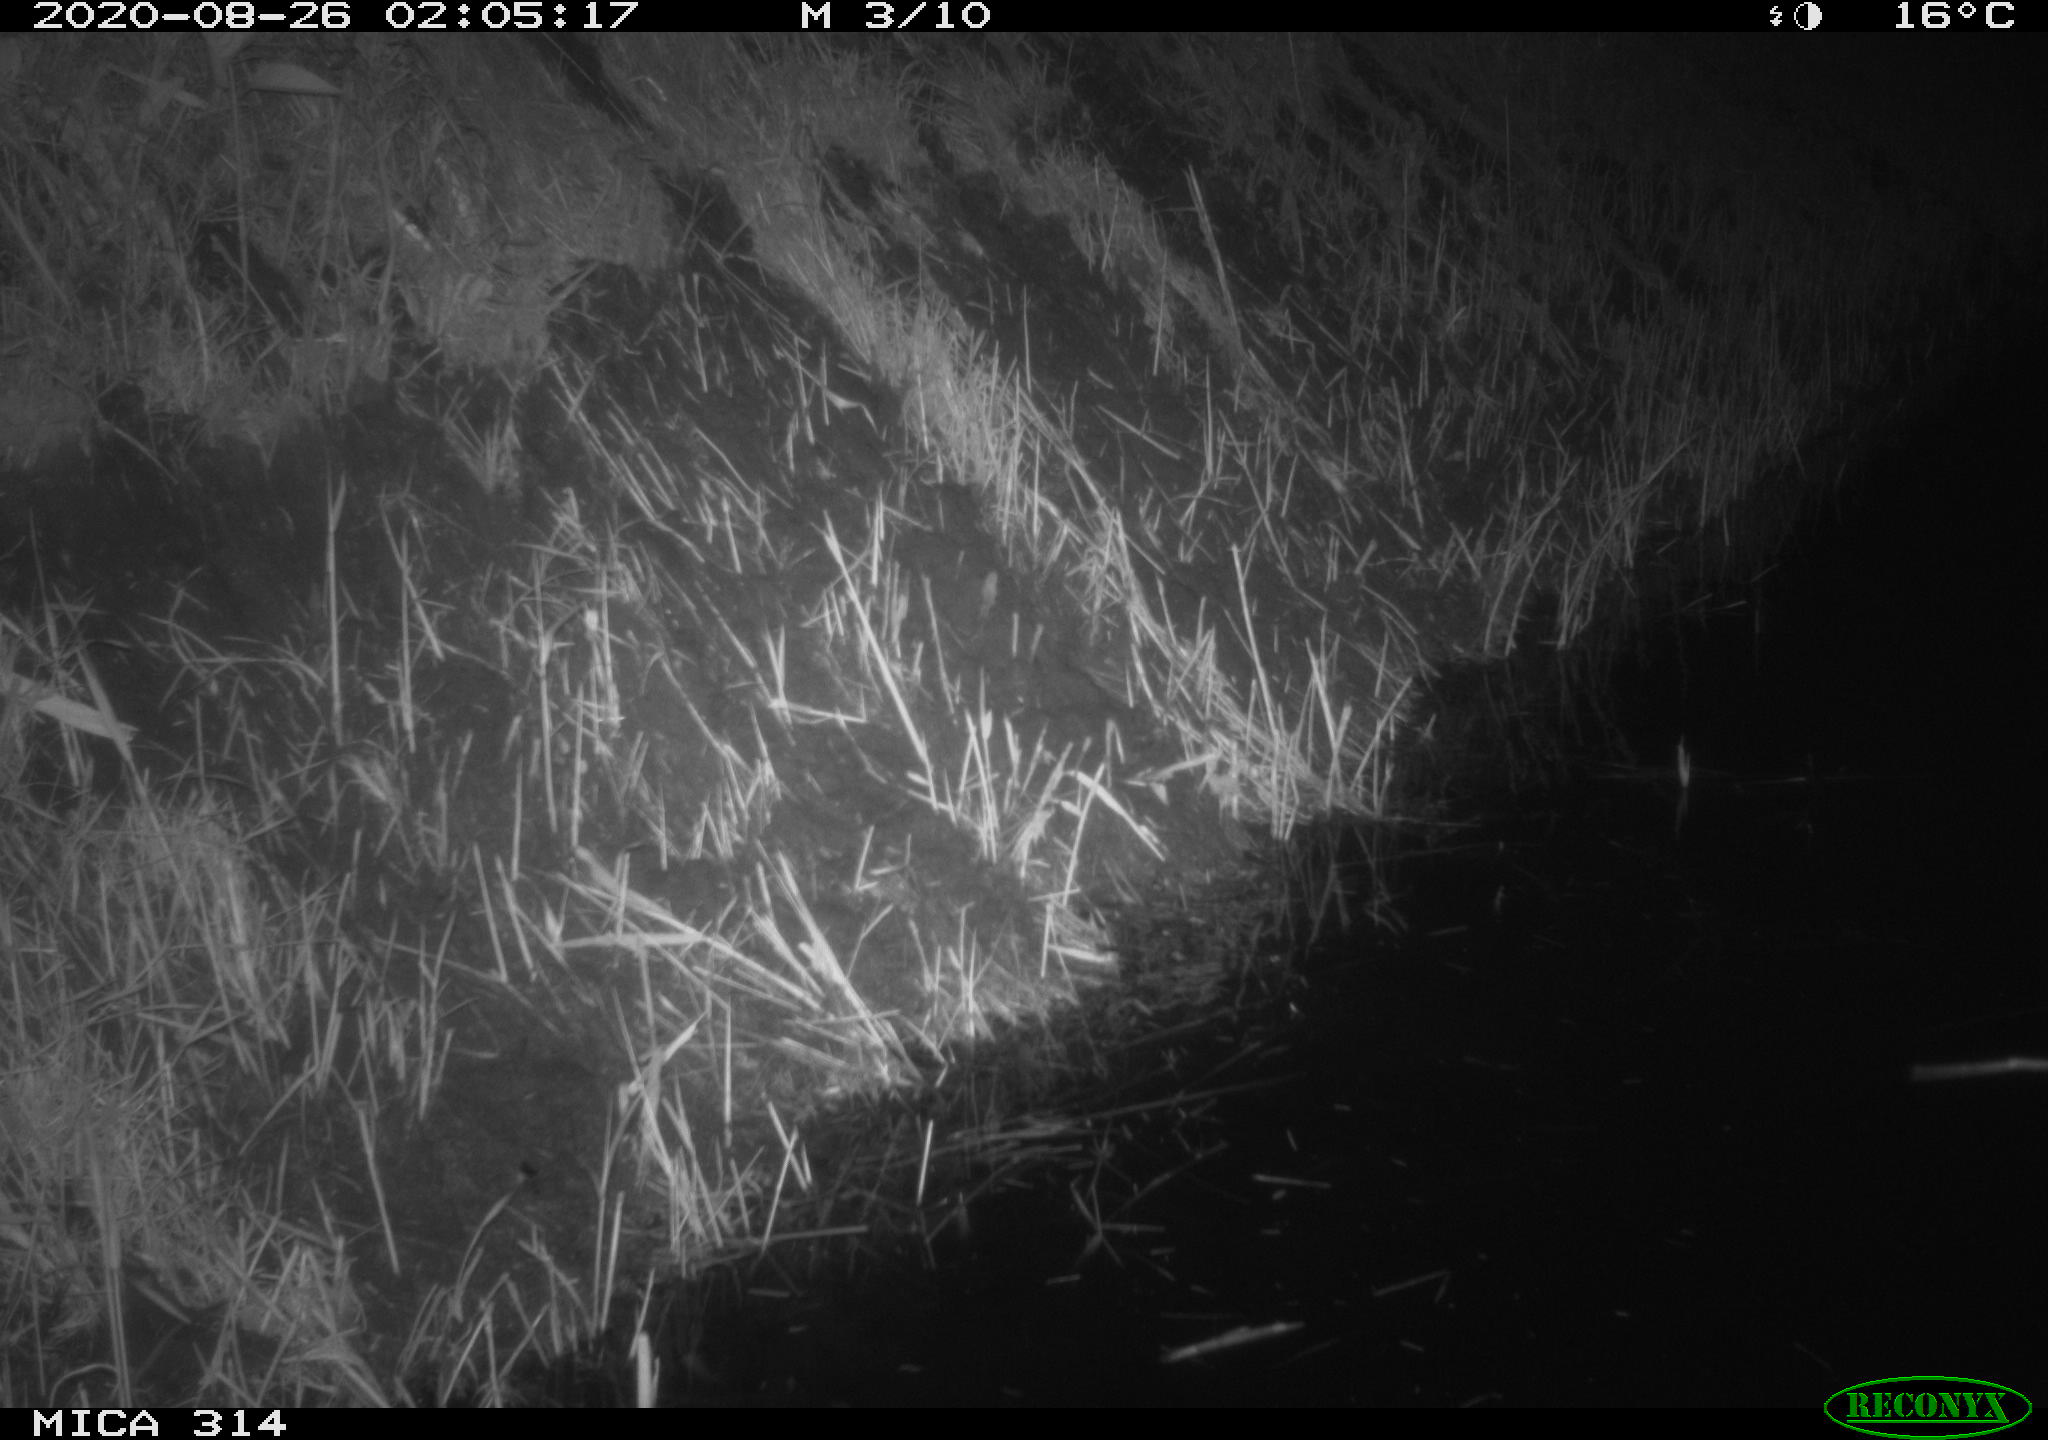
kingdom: Animalia
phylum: Chordata
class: Mammalia
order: Rodentia
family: Muridae
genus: Rattus
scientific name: Rattus norvegicus
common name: Brown rat
